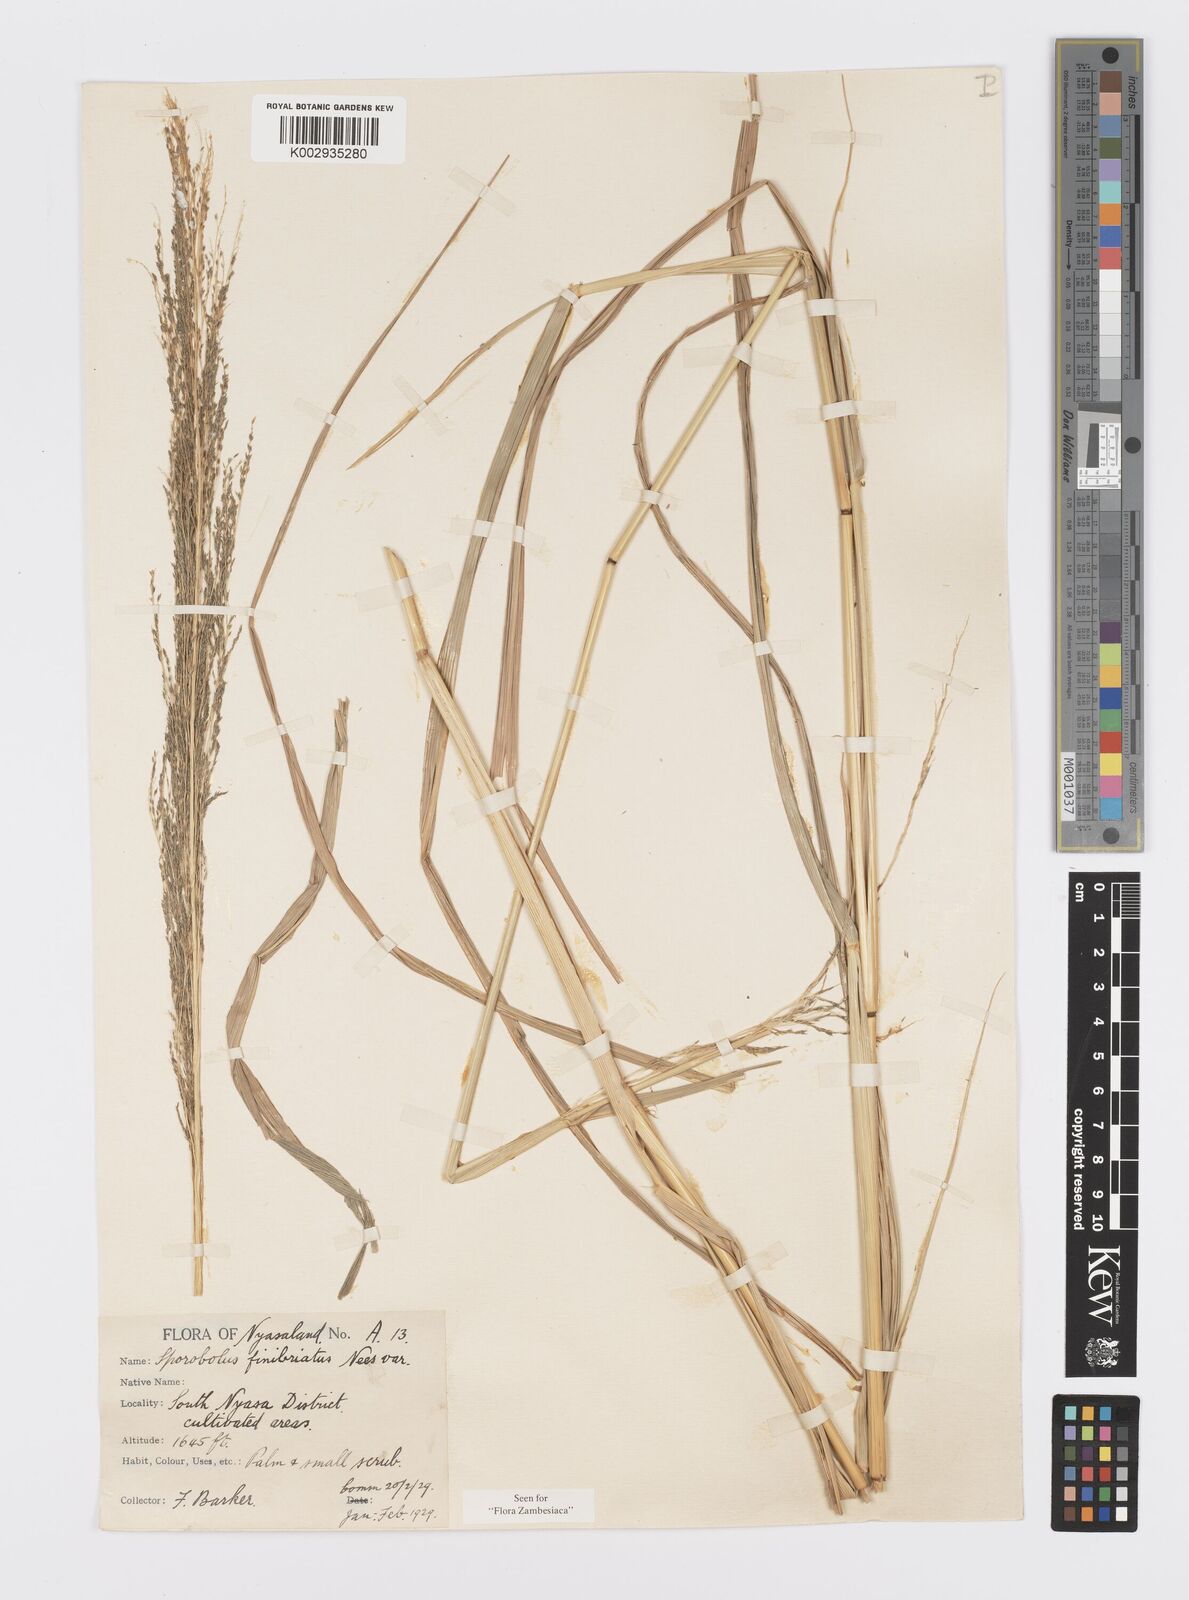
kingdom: Plantae
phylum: Tracheophyta
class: Liliopsida
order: Poales
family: Poaceae
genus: Sporobolus
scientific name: Sporobolus fimbriatus
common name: Fringed dropseed
